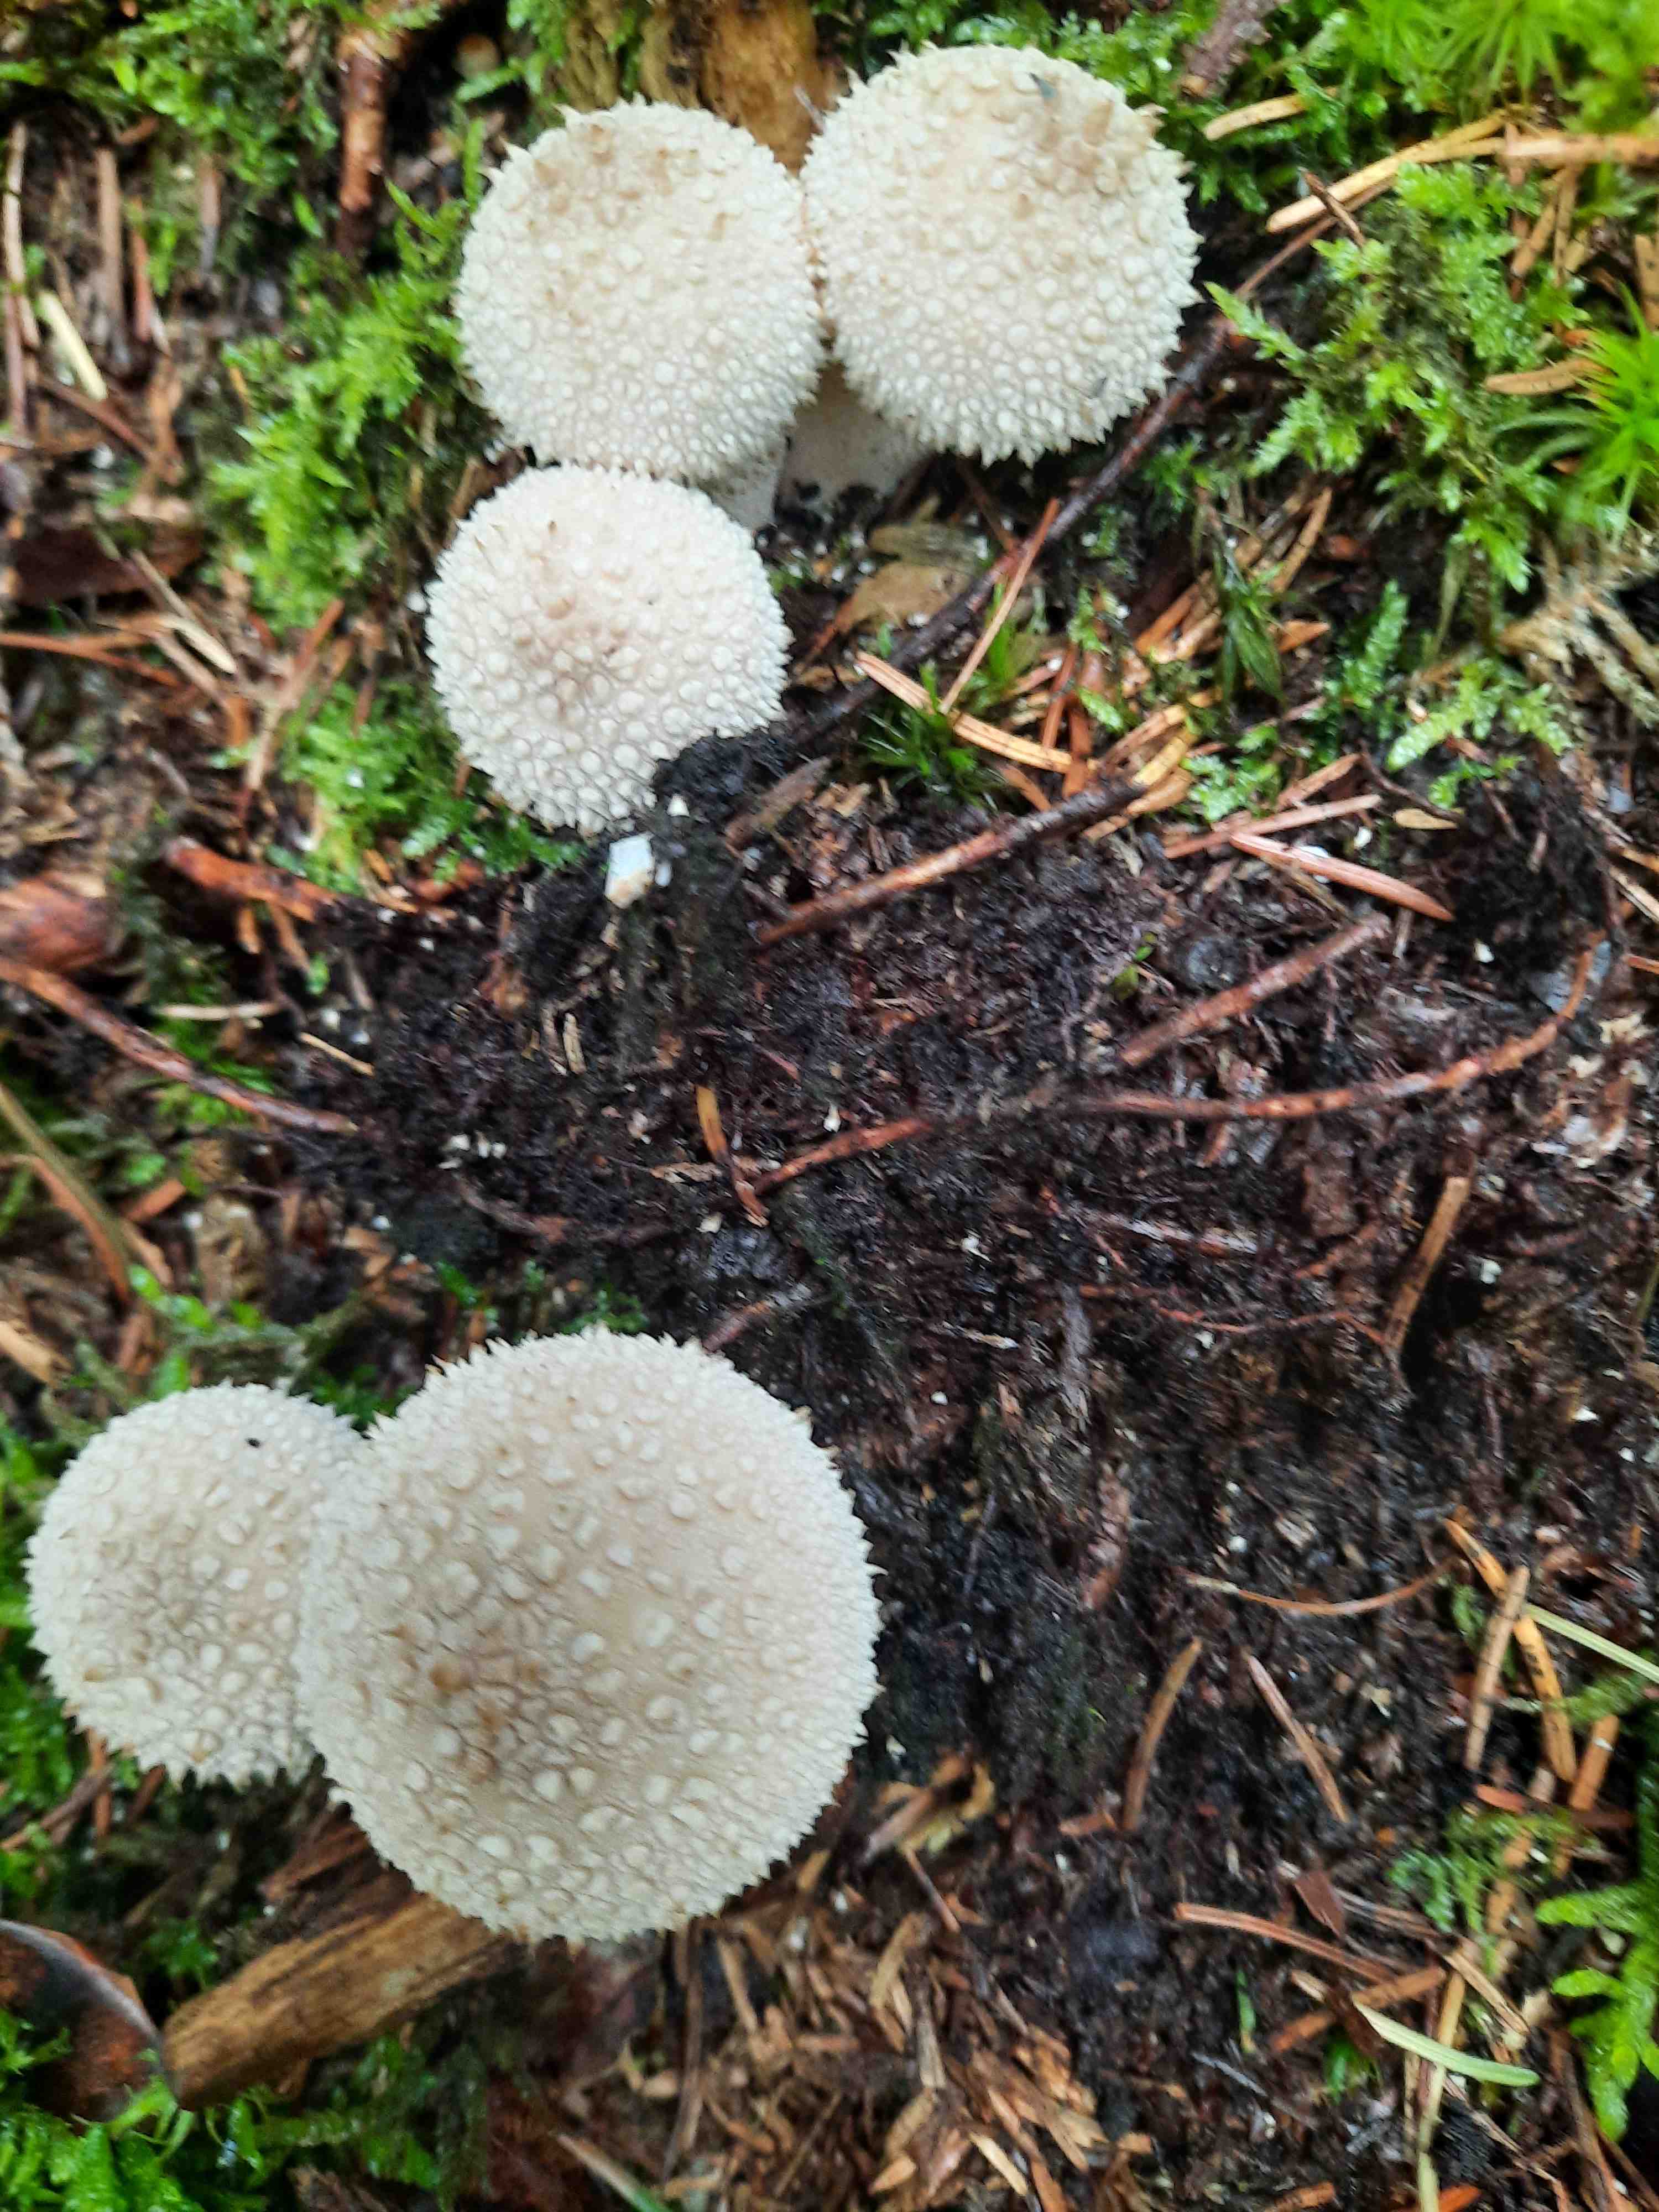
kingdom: Fungi
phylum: Basidiomycota
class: Agaricomycetes
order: Agaricales
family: Lycoperdaceae
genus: Lycoperdon
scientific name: Lycoperdon perlatum
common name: krystal-støvbold
